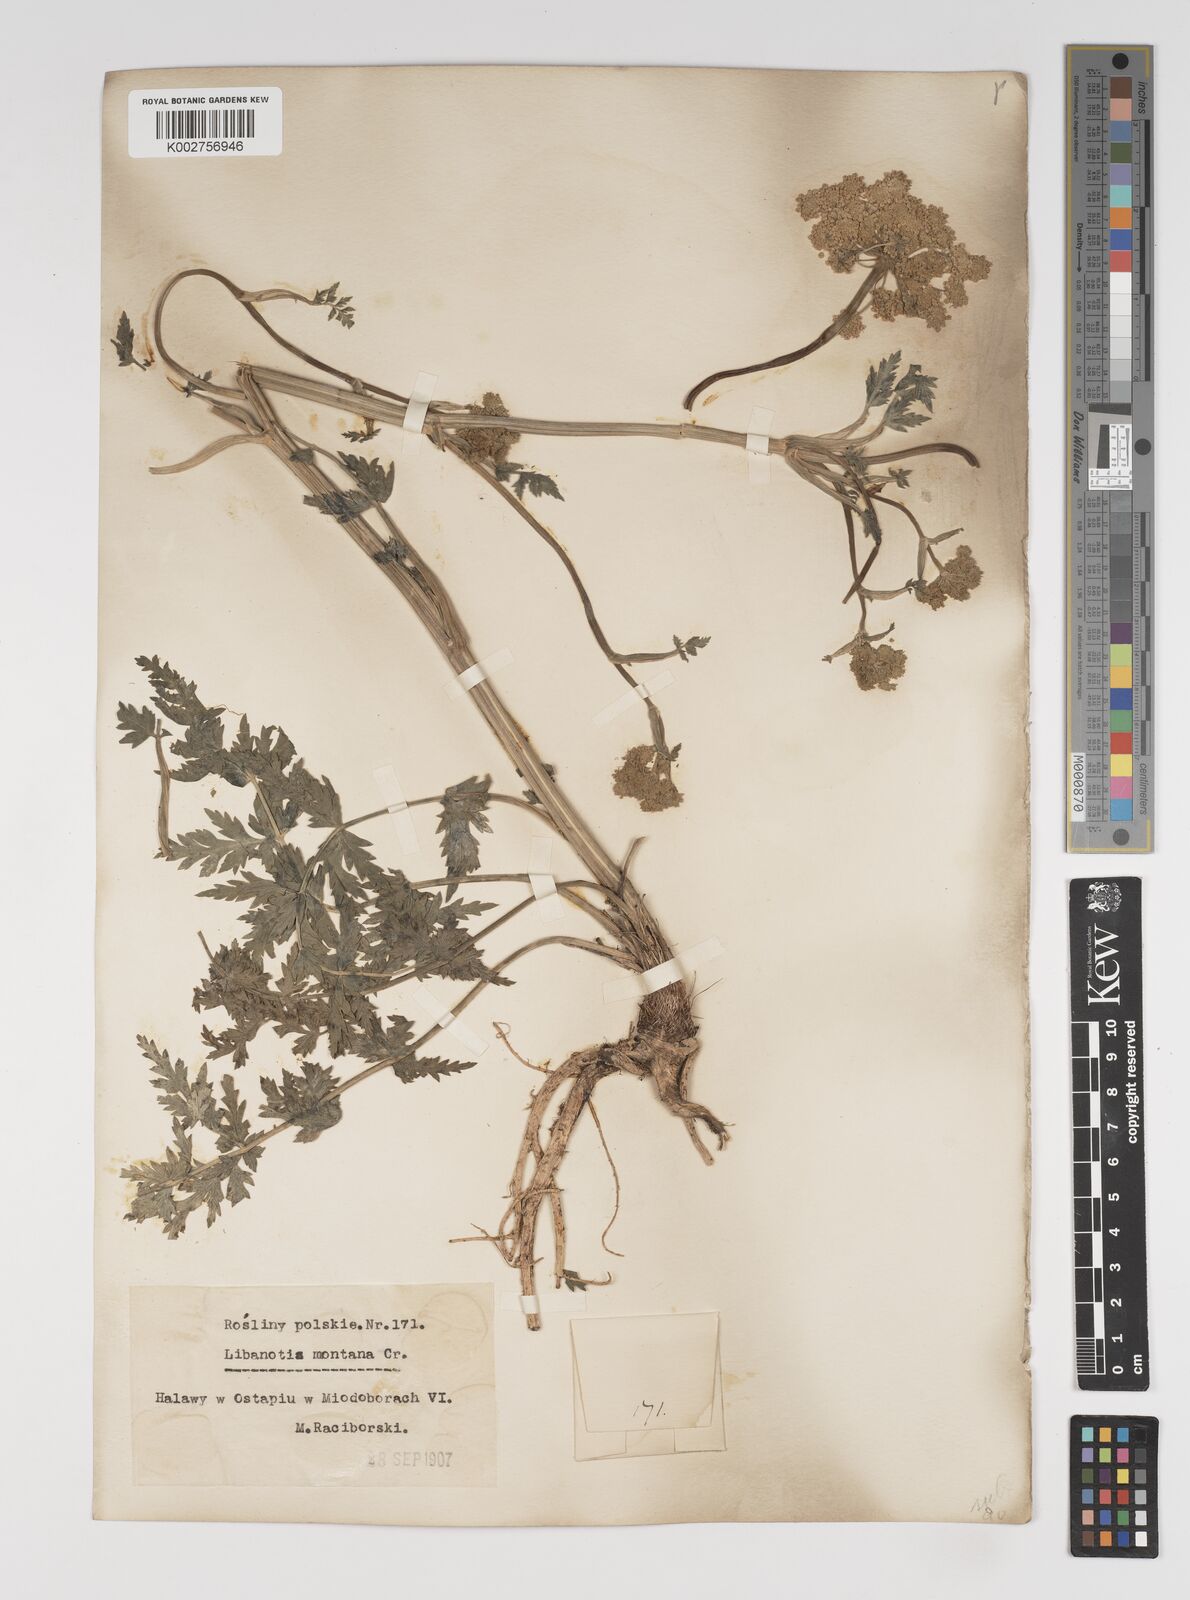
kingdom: Plantae
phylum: Tracheophyta
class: Magnoliopsida
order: Apiales
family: Apiaceae
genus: Seseli
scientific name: Seseli libanotis
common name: Mooncarrot
